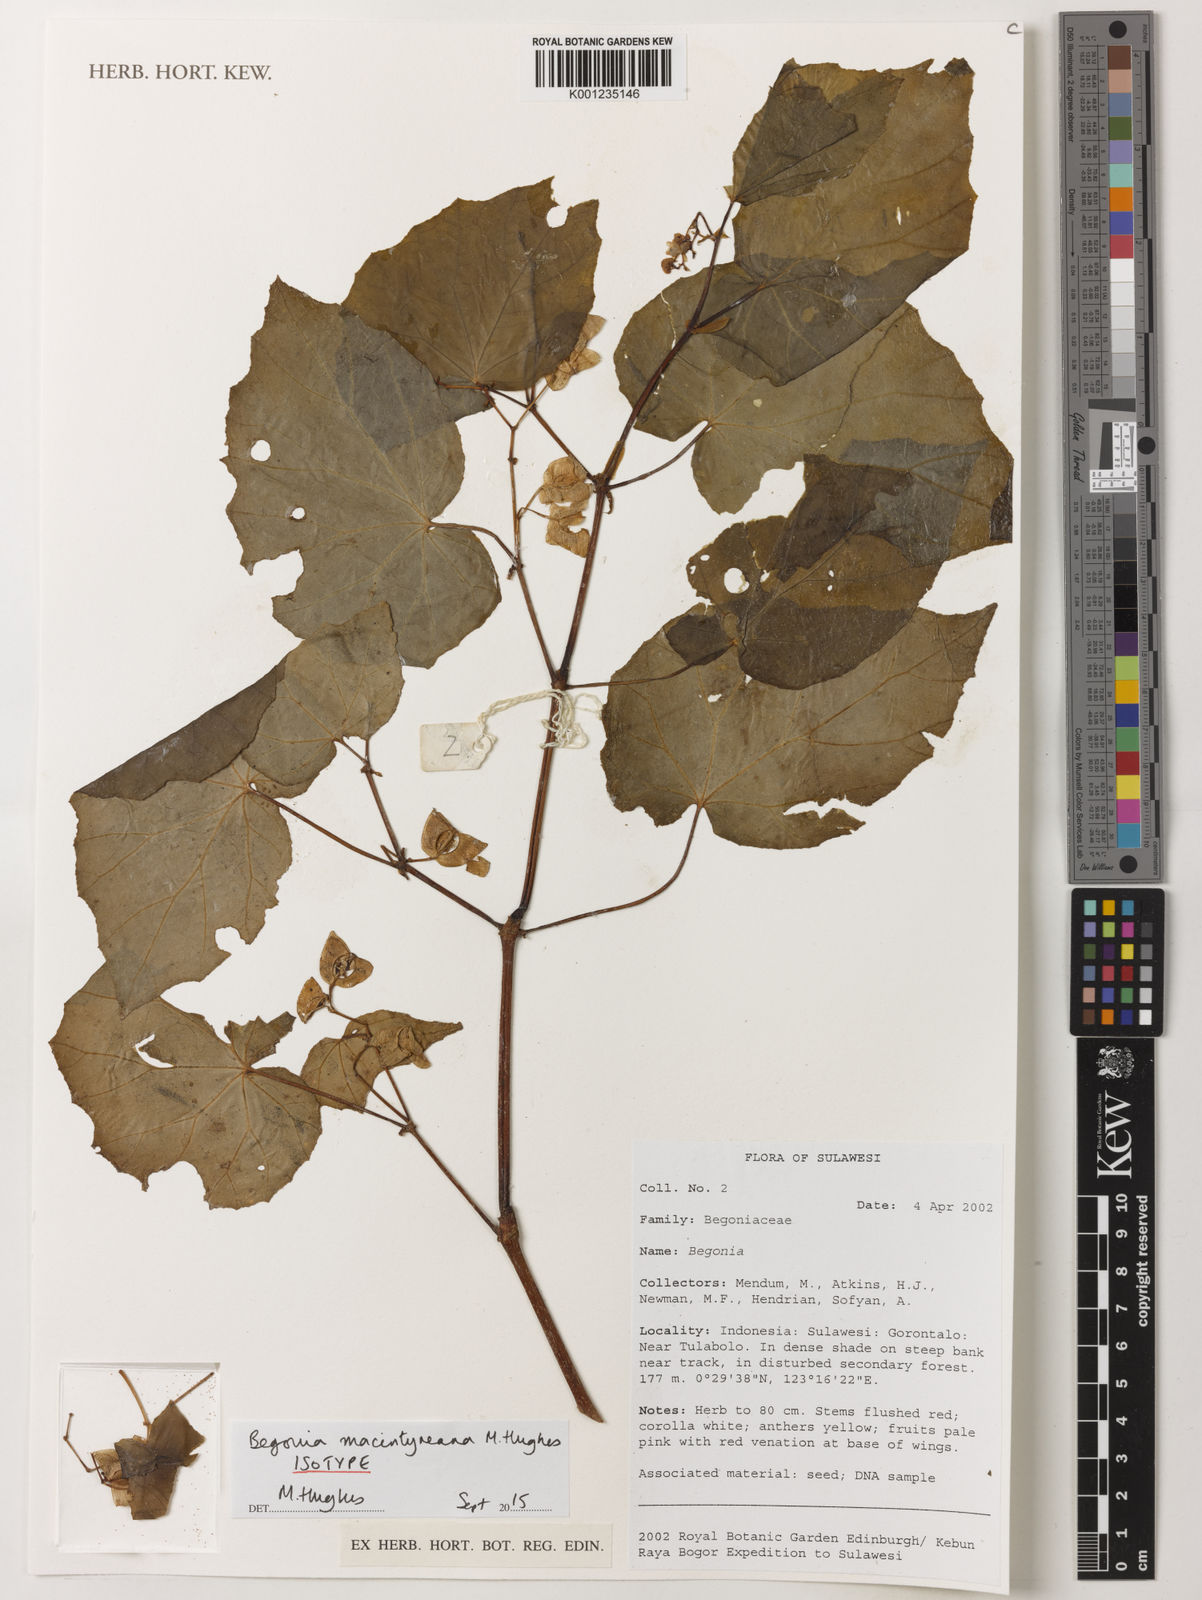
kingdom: Plantae
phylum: Tracheophyta
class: Magnoliopsida
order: Cucurbitales
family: Begoniaceae
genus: Begonia
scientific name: Begonia macintyreana
